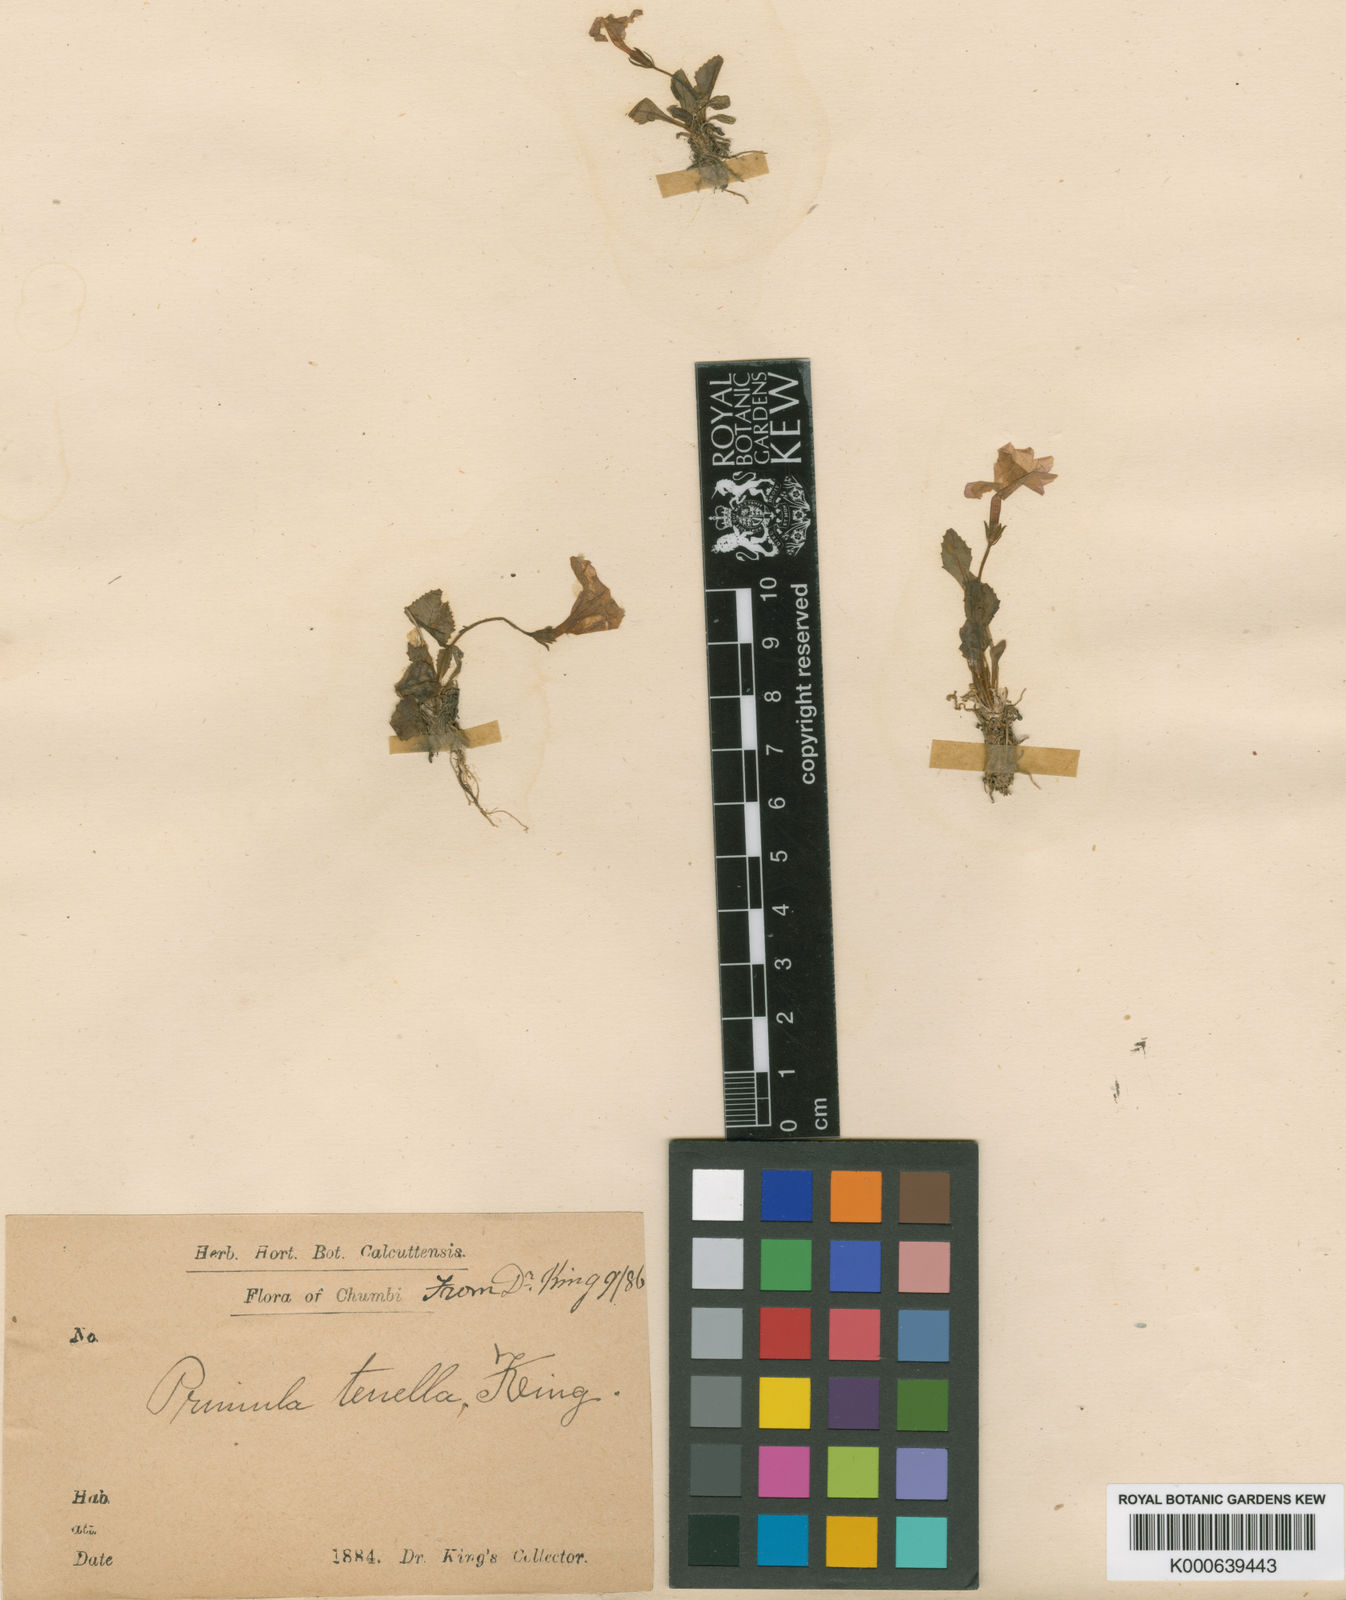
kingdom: Plantae
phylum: Tracheophyta
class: Magnoliopsida
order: Ericales
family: Primulaceae
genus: Primula
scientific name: Primula tenella
